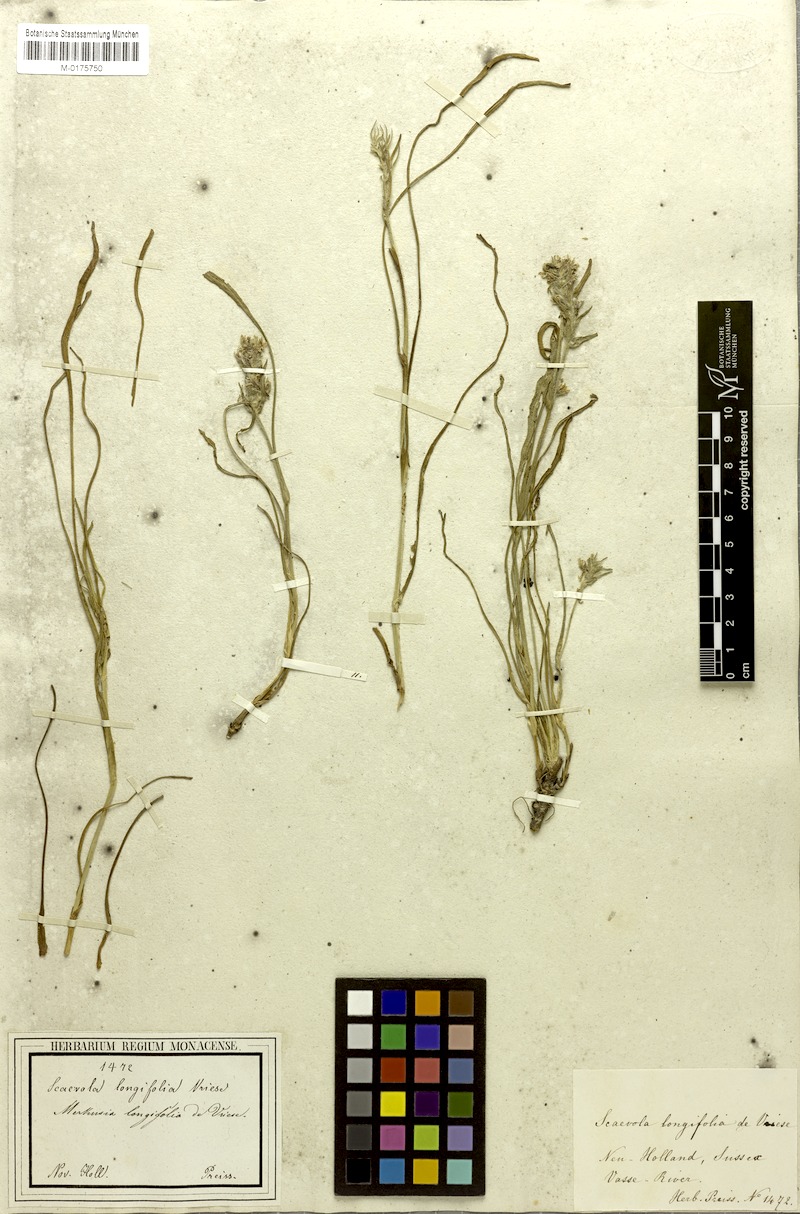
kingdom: Plantae
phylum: Tracheophyta
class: Magnoliopsida
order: Asterales
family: Goodeniaceae
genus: Scaevola
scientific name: Scaevola lanceolata
